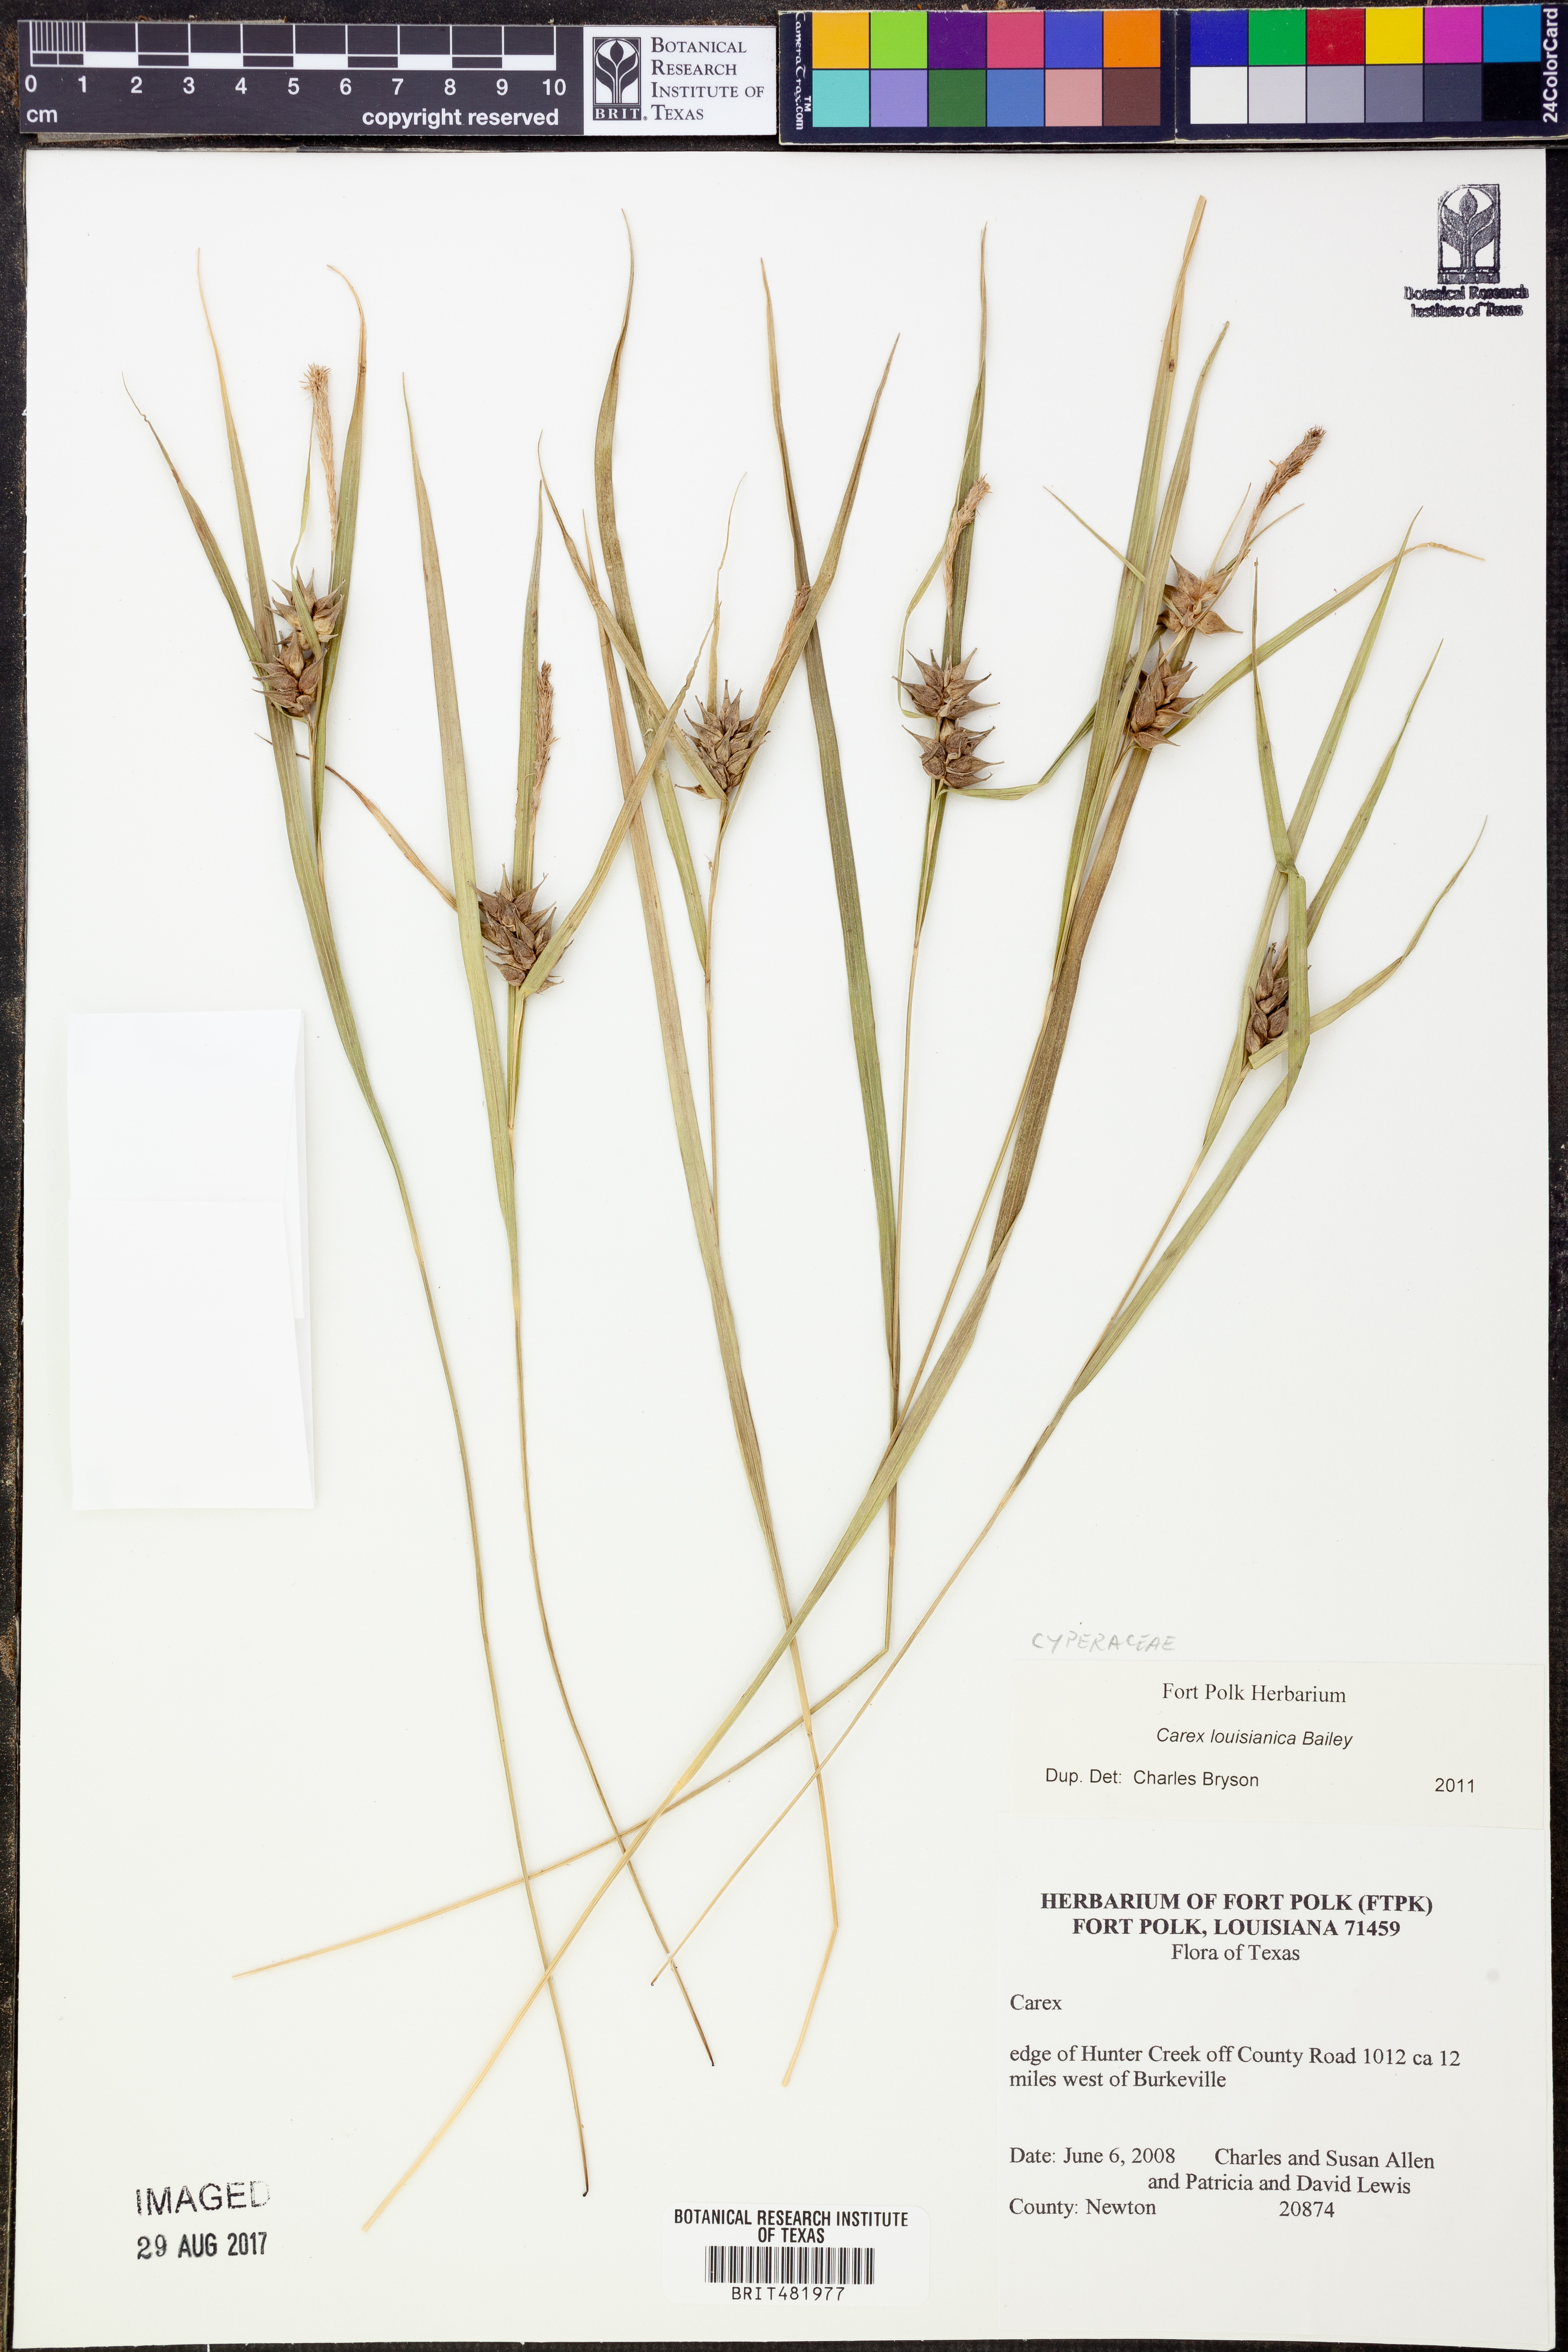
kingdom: Plantae
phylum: Tracheophyta
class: Liliopsida
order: Poales
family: Cyperaceae
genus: Carex
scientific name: Carex louisianica
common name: Louisiana sedge
